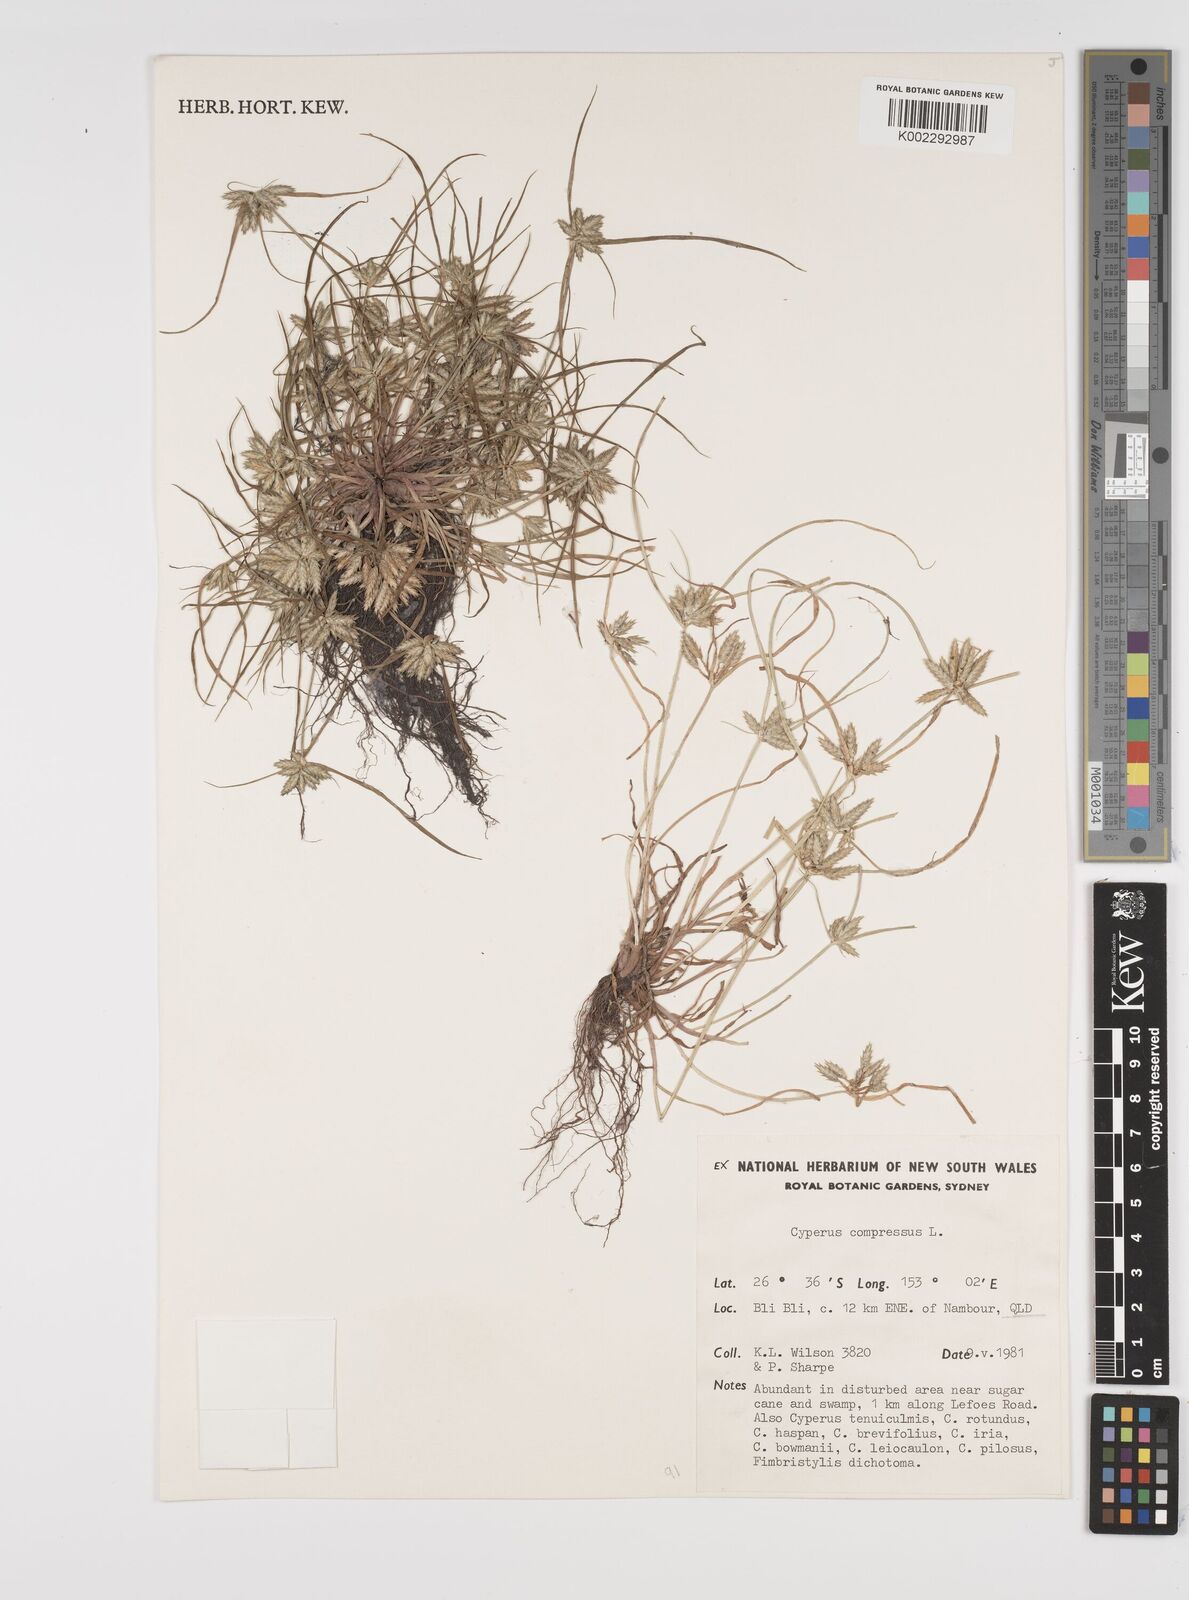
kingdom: Plantae
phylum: Tracheophyta
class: Liliopsida
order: Poales
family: Cyperaceae
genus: Cyperus
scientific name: Cyperus compressus
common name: Poorland flatsedge
